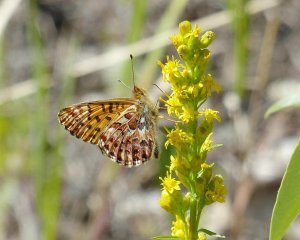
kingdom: Animalia
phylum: Arthropoda
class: Insecta
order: Lepidoptera
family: Nymphalidae
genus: Boloria
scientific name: Boloria chariclea
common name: Arctic Fritillary
